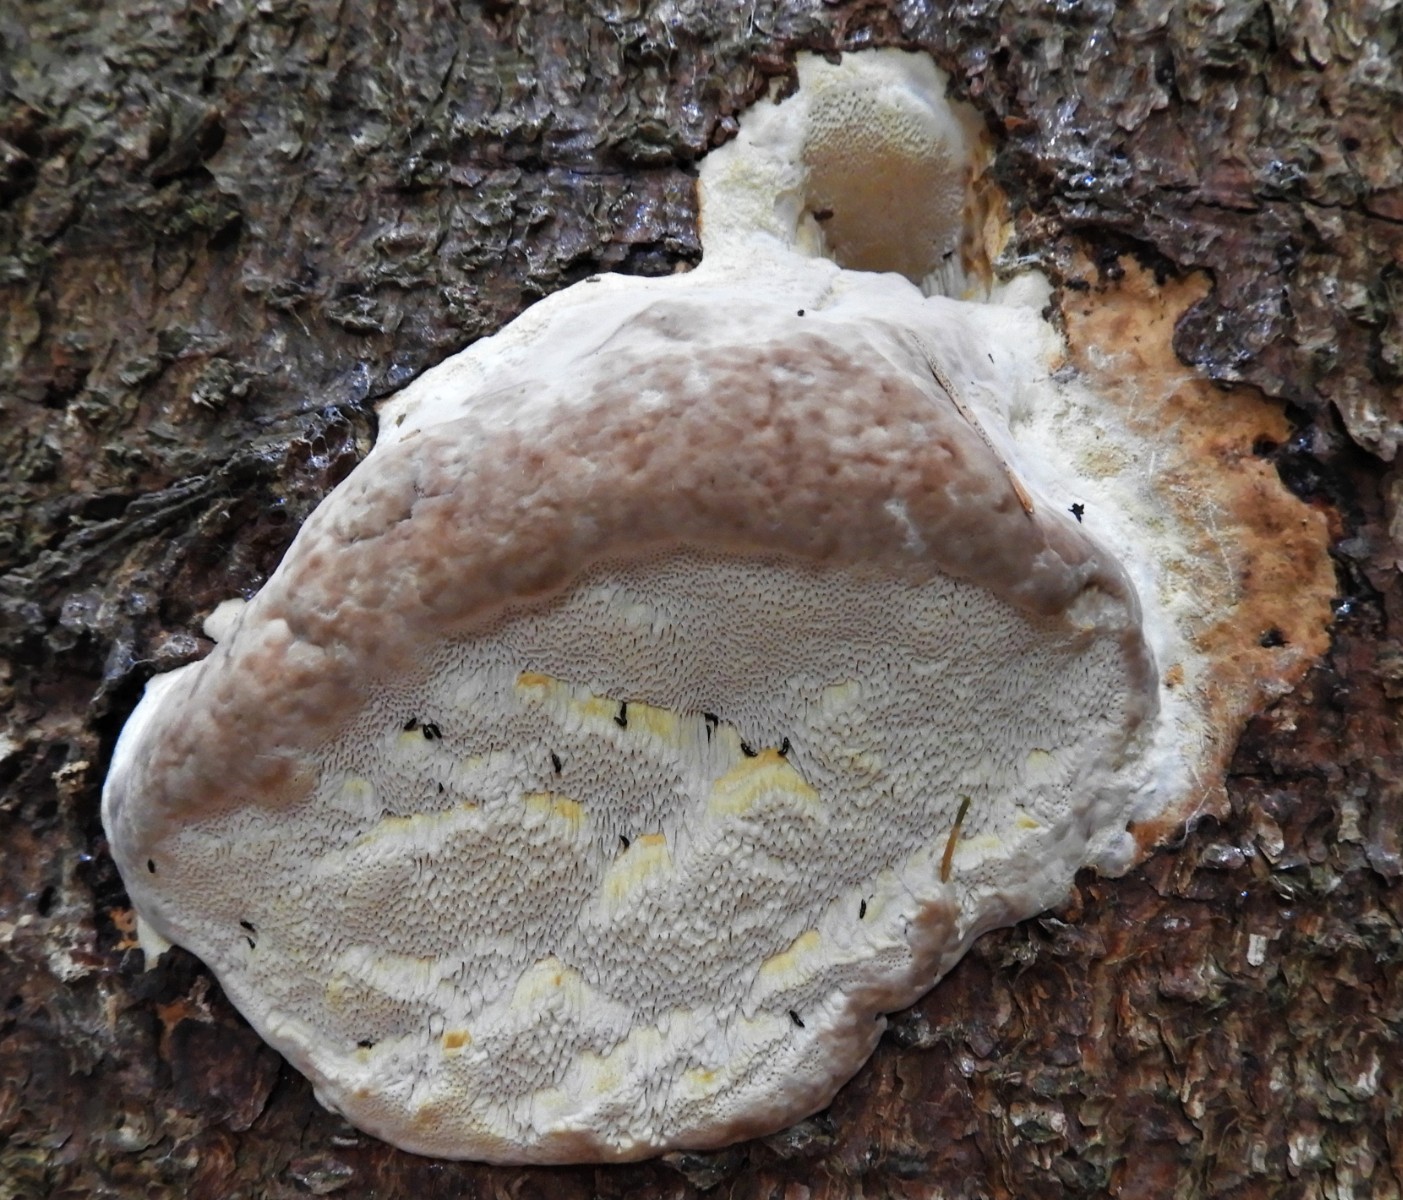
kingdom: Fungi
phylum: Basidiomycota
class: Agaricomycetes
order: Polyporales
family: Fomitopsidaceae
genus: Fomitopsis
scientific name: Fomitopsis pinicola
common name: randbæltet hovporesvamp
